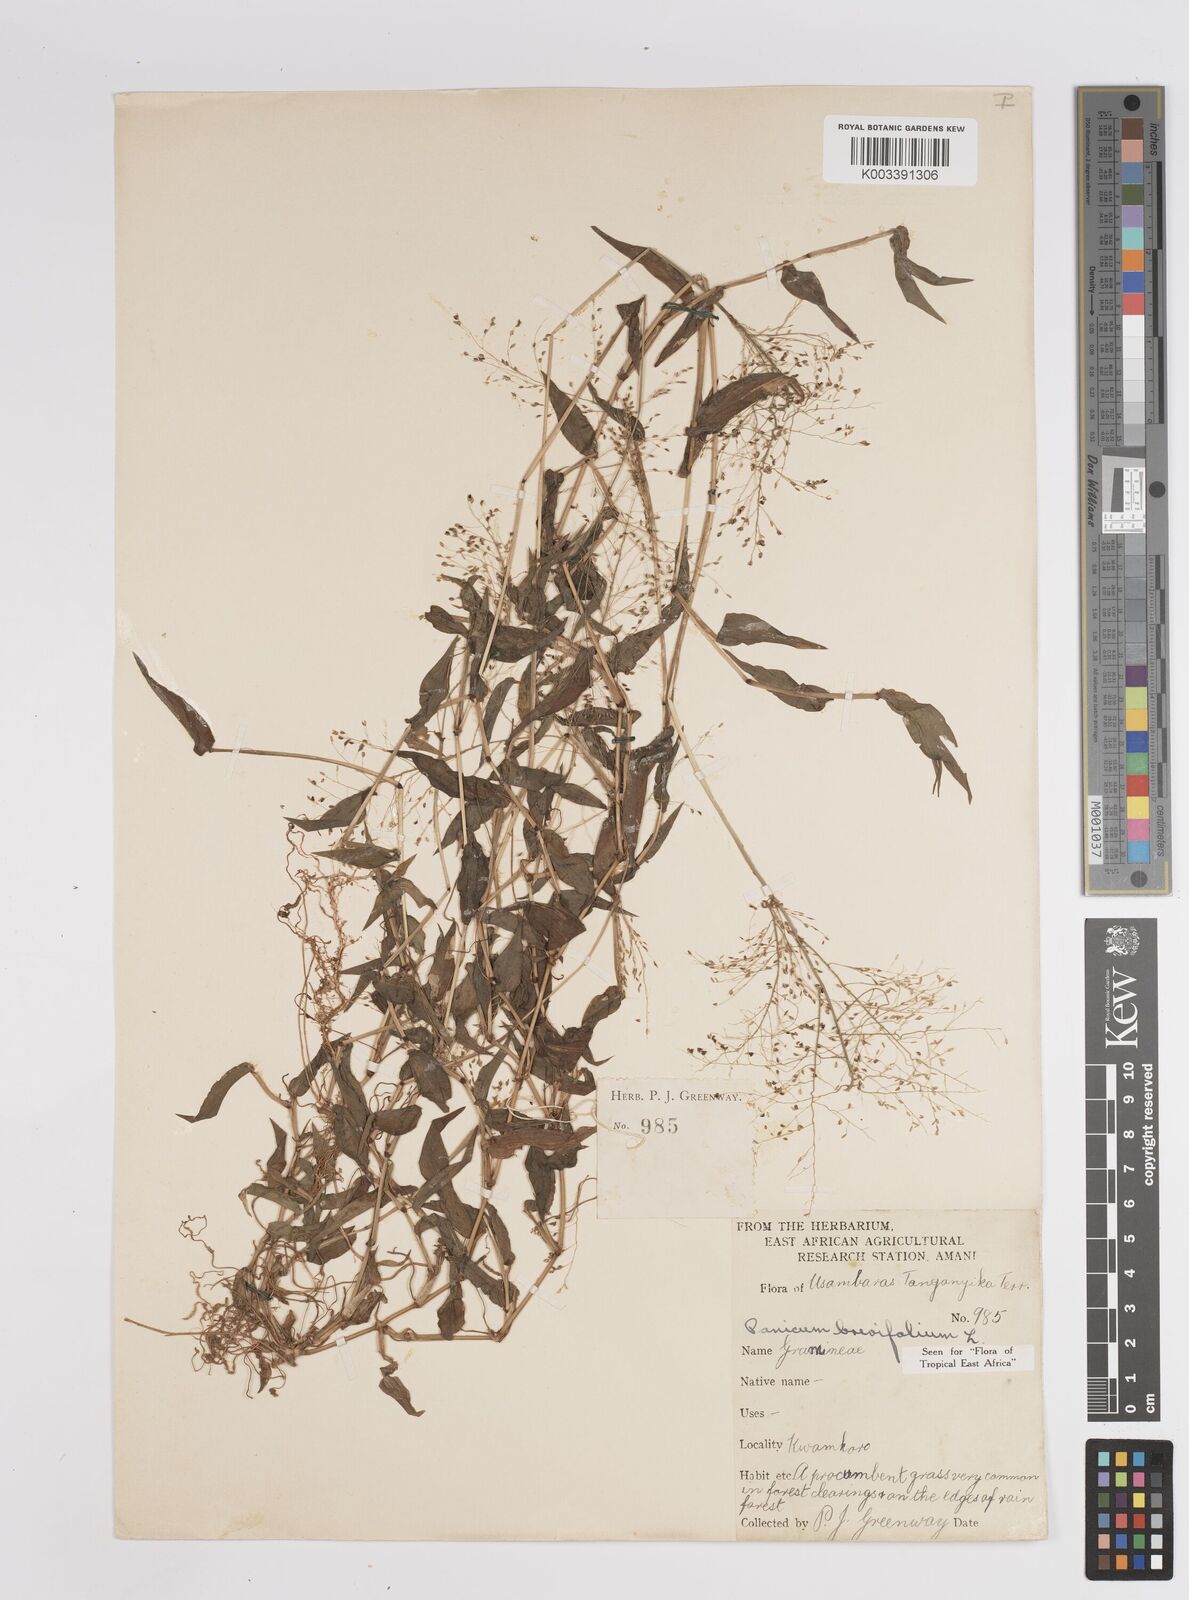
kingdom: Plantae
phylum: Tracheophyta
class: Liliopsida
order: Poales
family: Poaceae
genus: Panicum
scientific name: Panicum brevifolium
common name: Shortleaf panic grass
